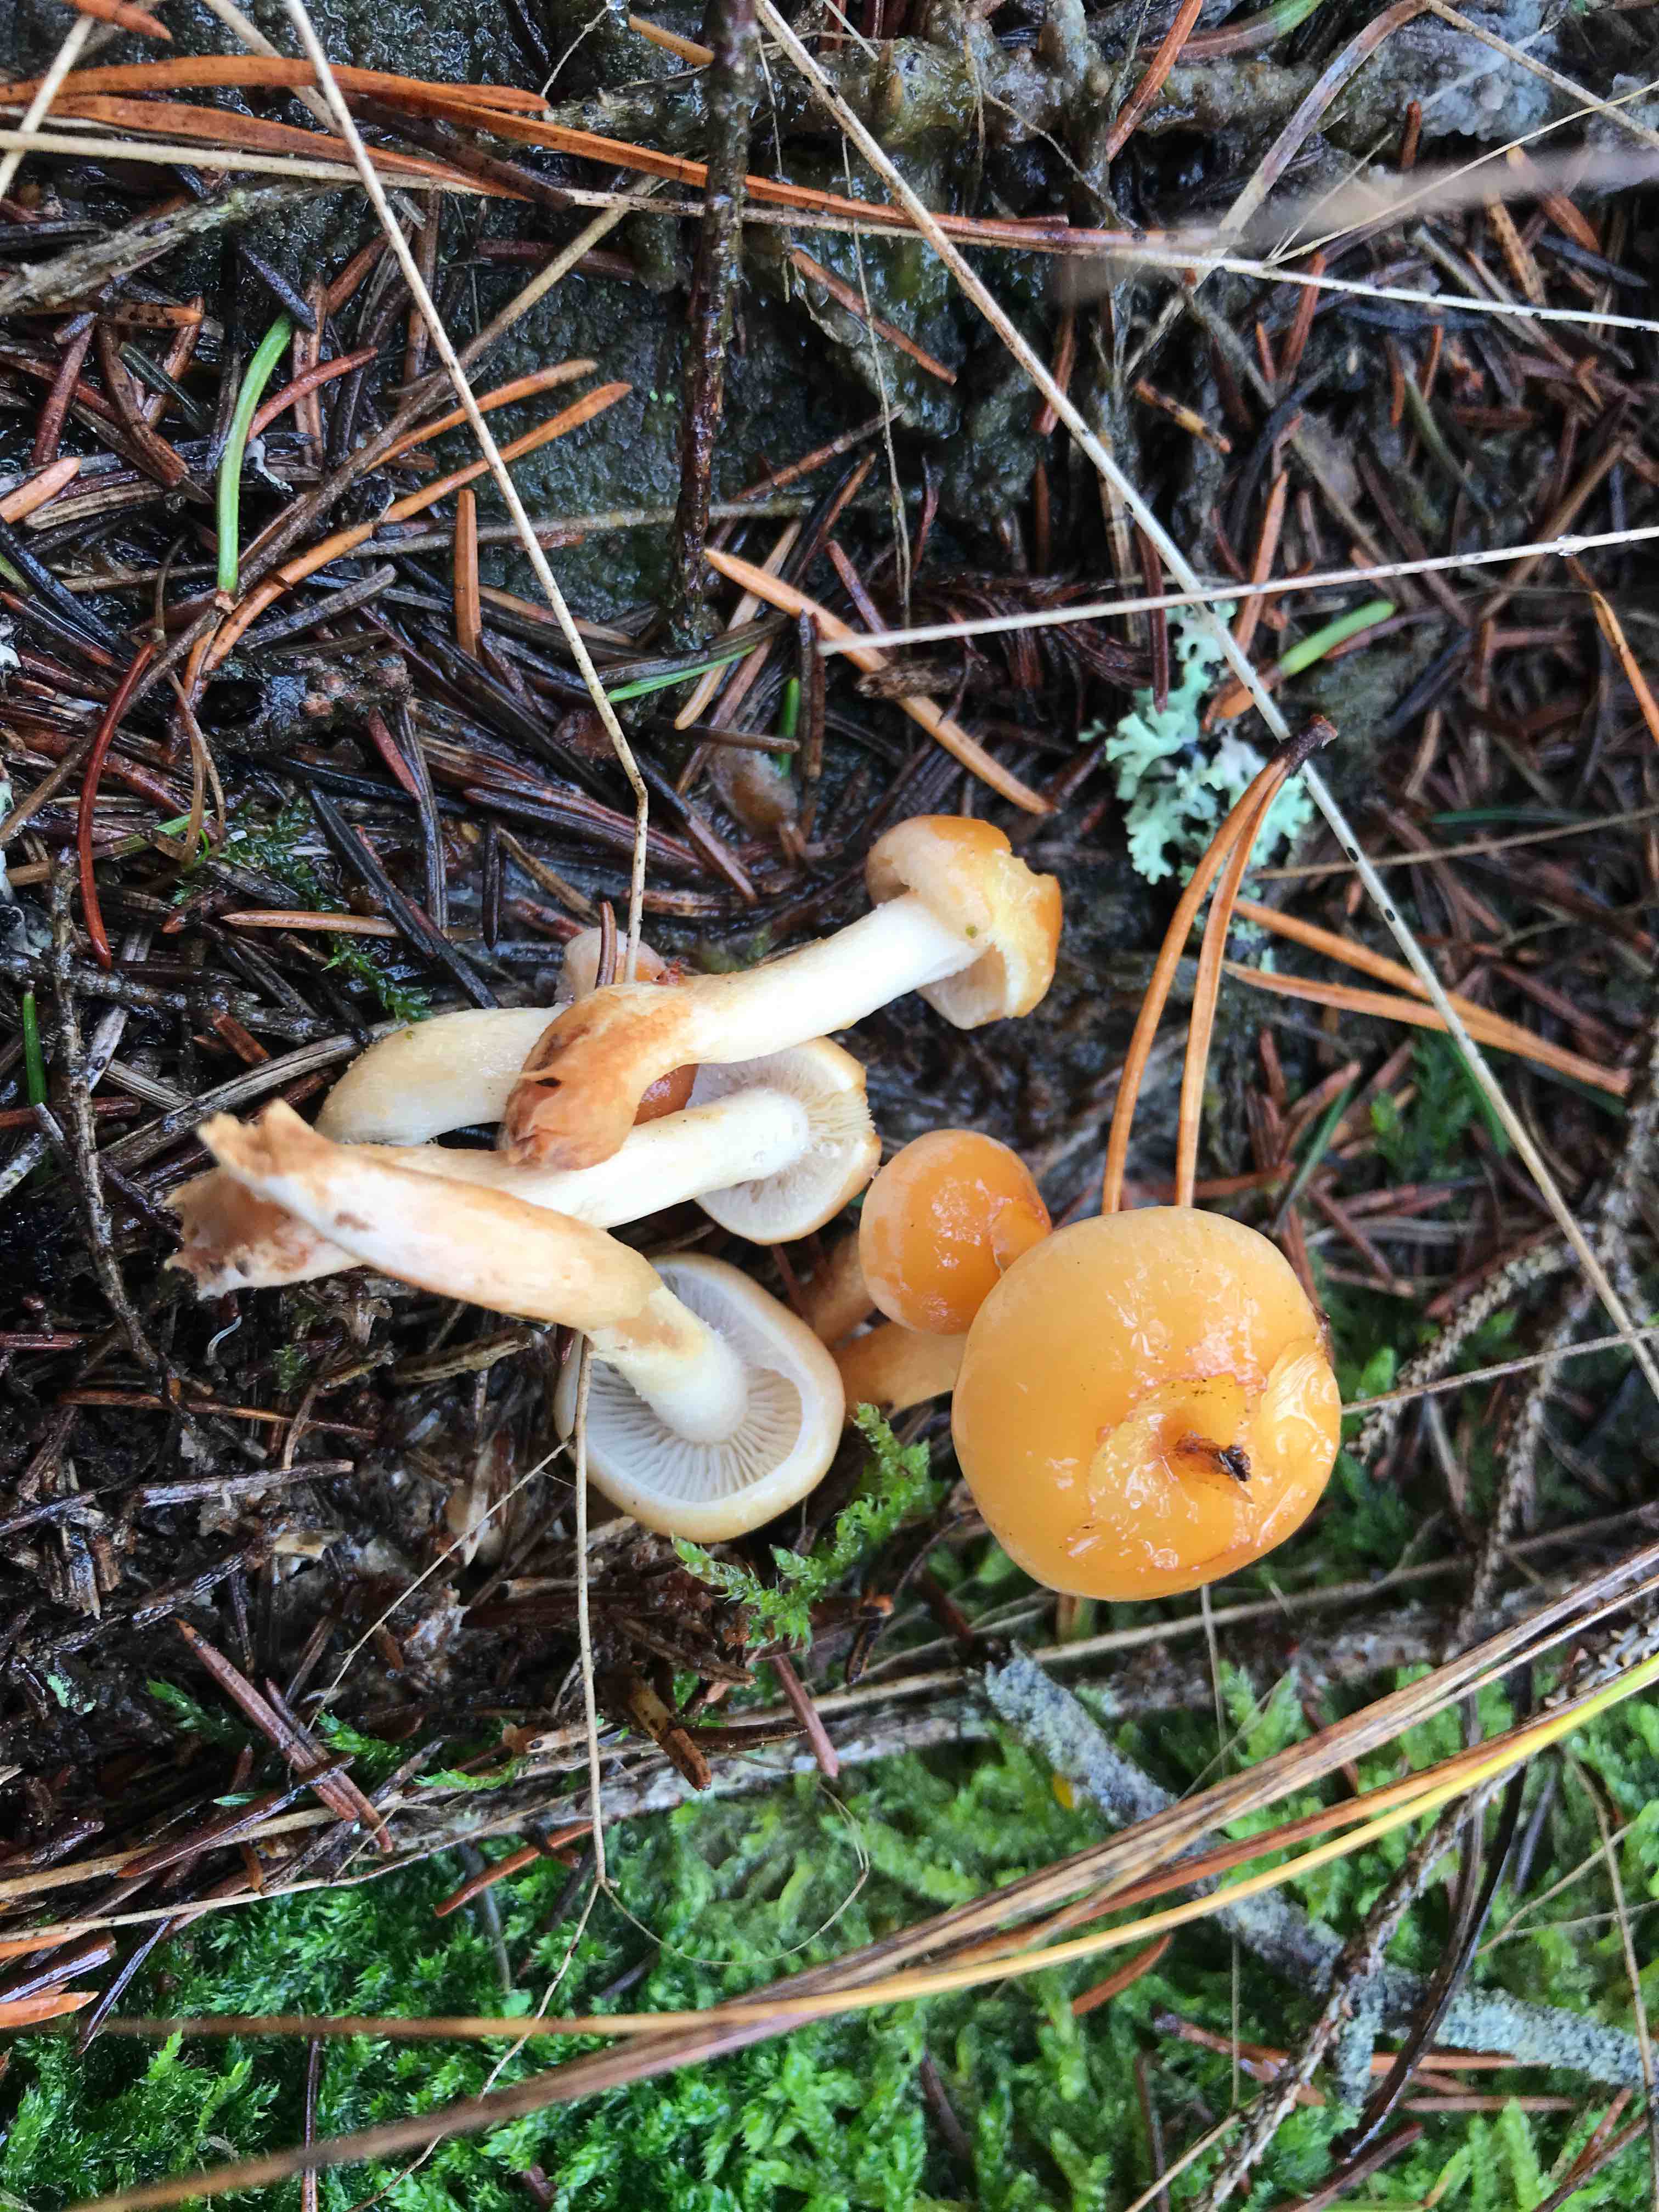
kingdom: Fungi
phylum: Basidiomycota
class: Agaricomycetes
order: Agaricales
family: Strophariaceae
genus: Hypholoma
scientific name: Hypholoma capnoides
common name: gran-svovlhat
